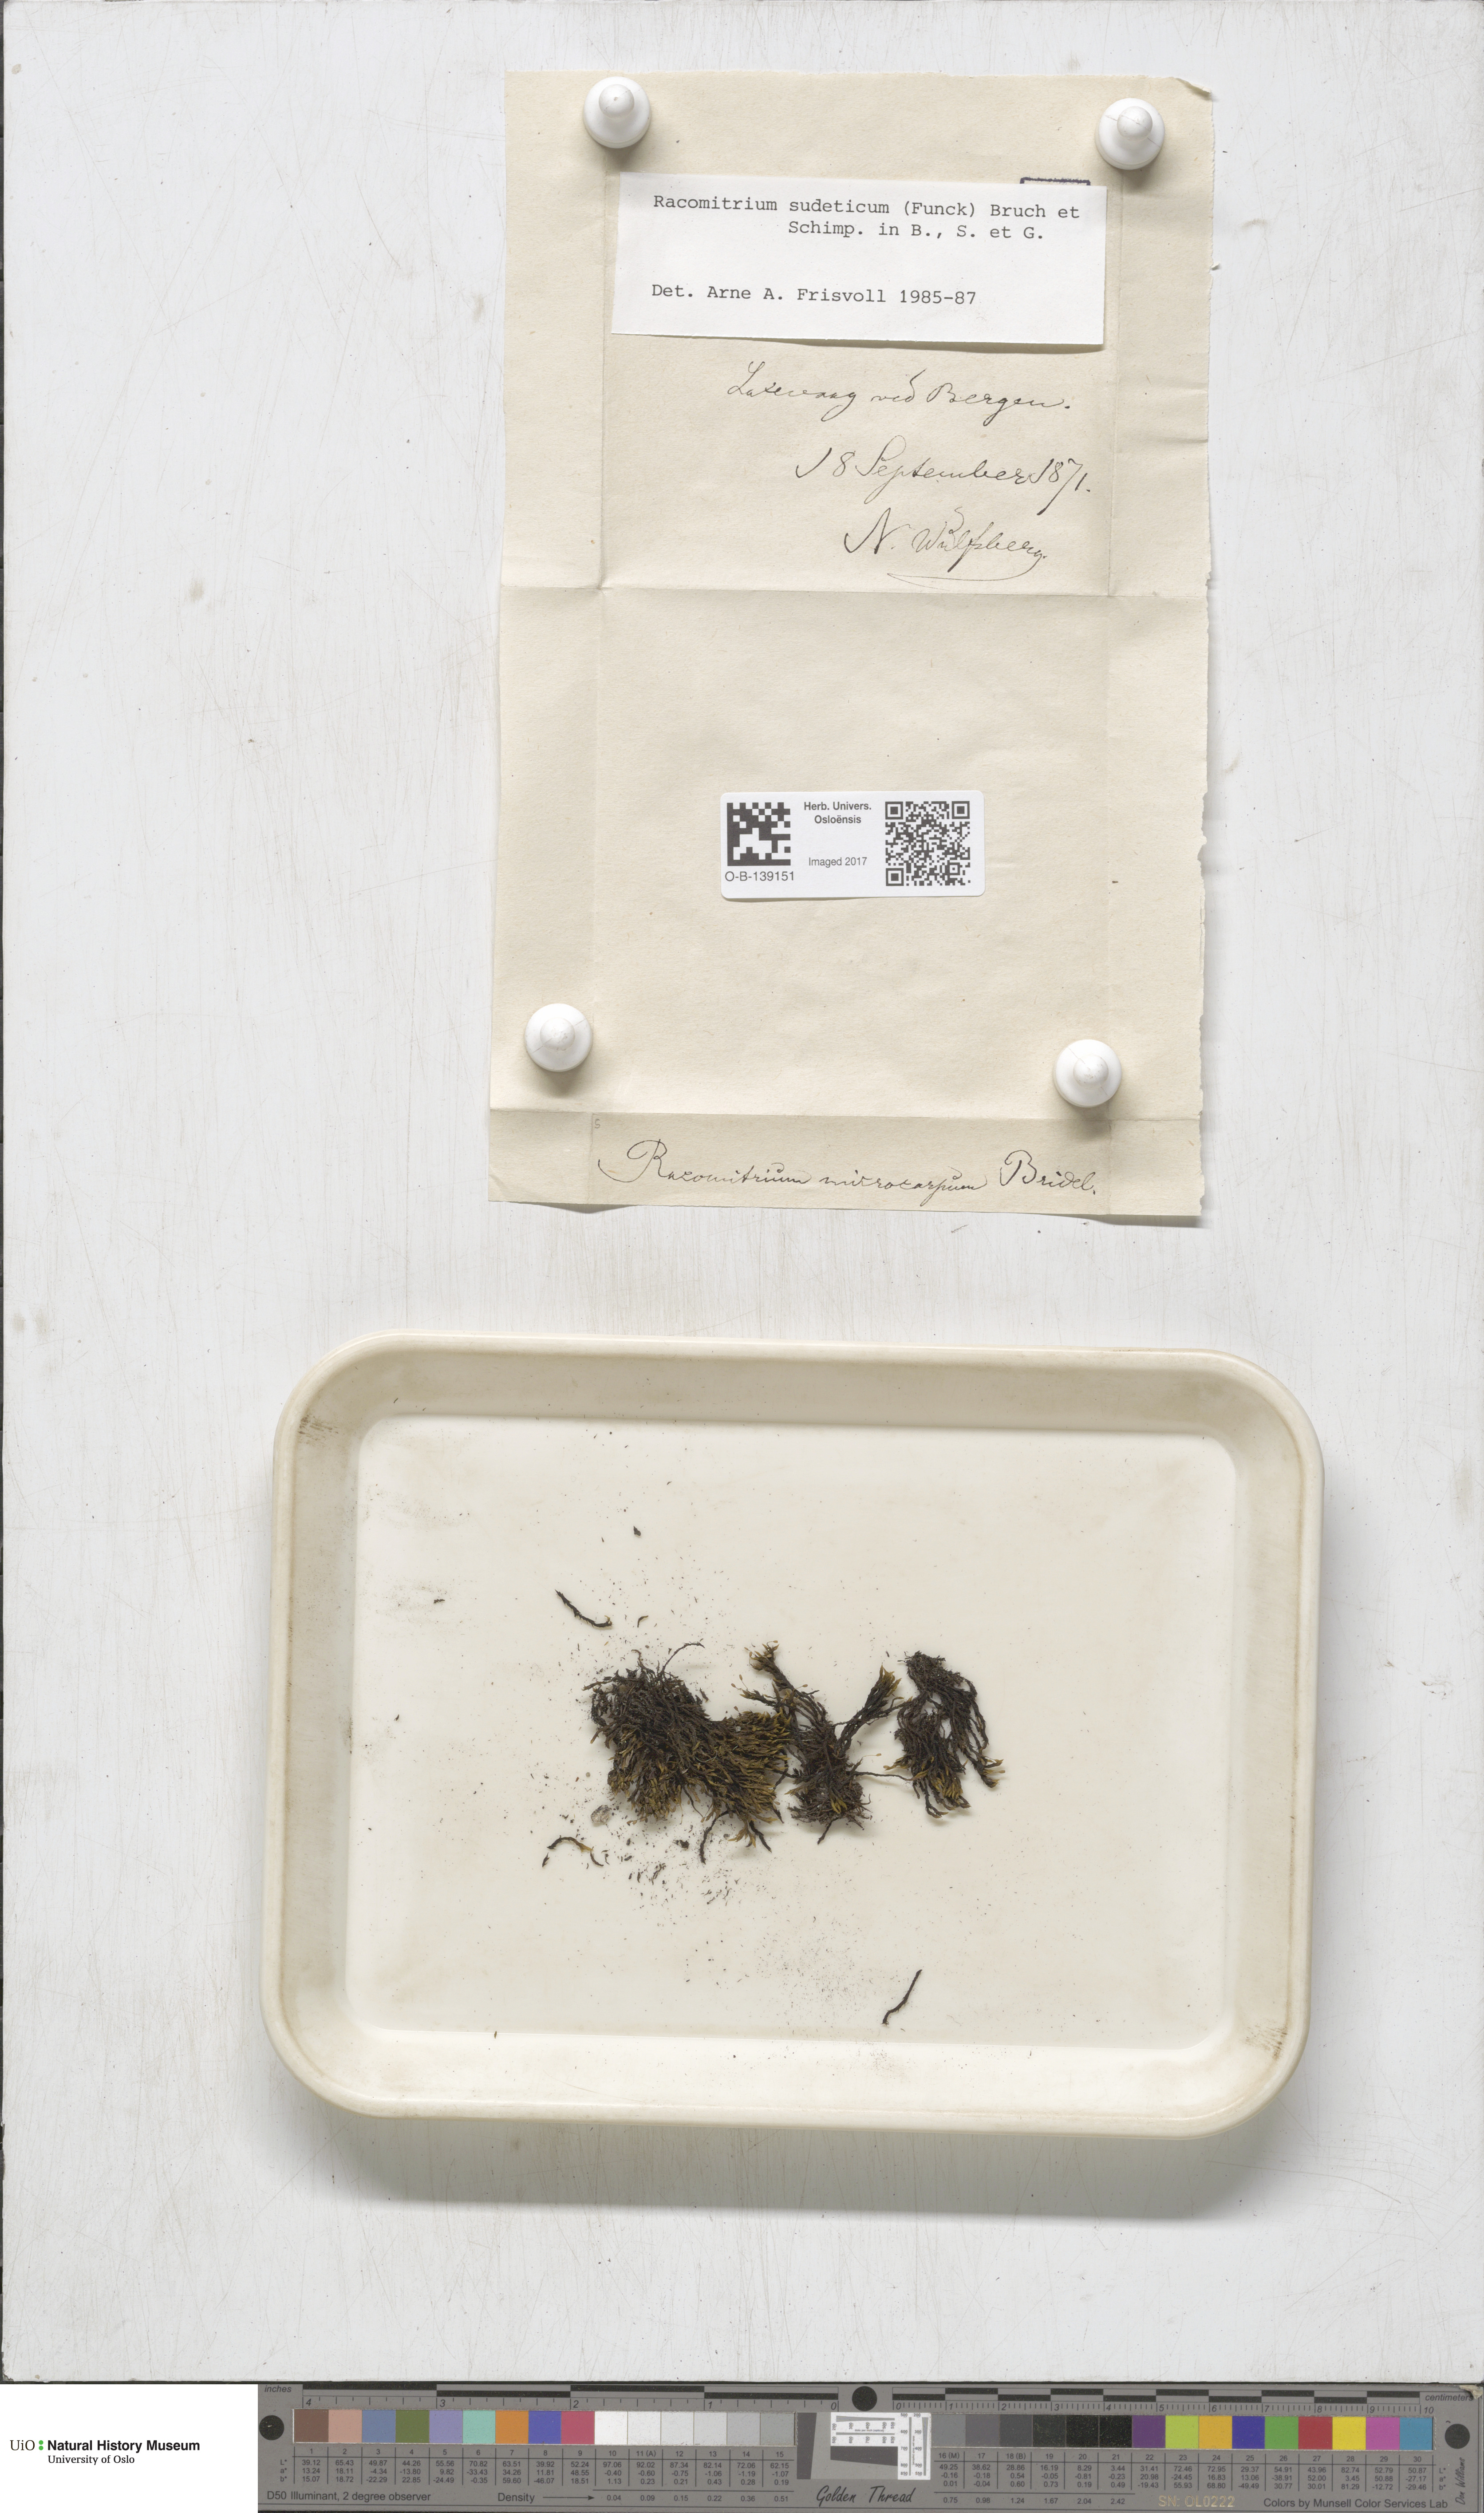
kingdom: Plantae
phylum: Bryophyta
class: Bryopsida
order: Grimmiales
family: Grimmiaceae
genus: Bucklandiella
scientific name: Bucklandiella sudetica
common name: Slender fringe-moss
